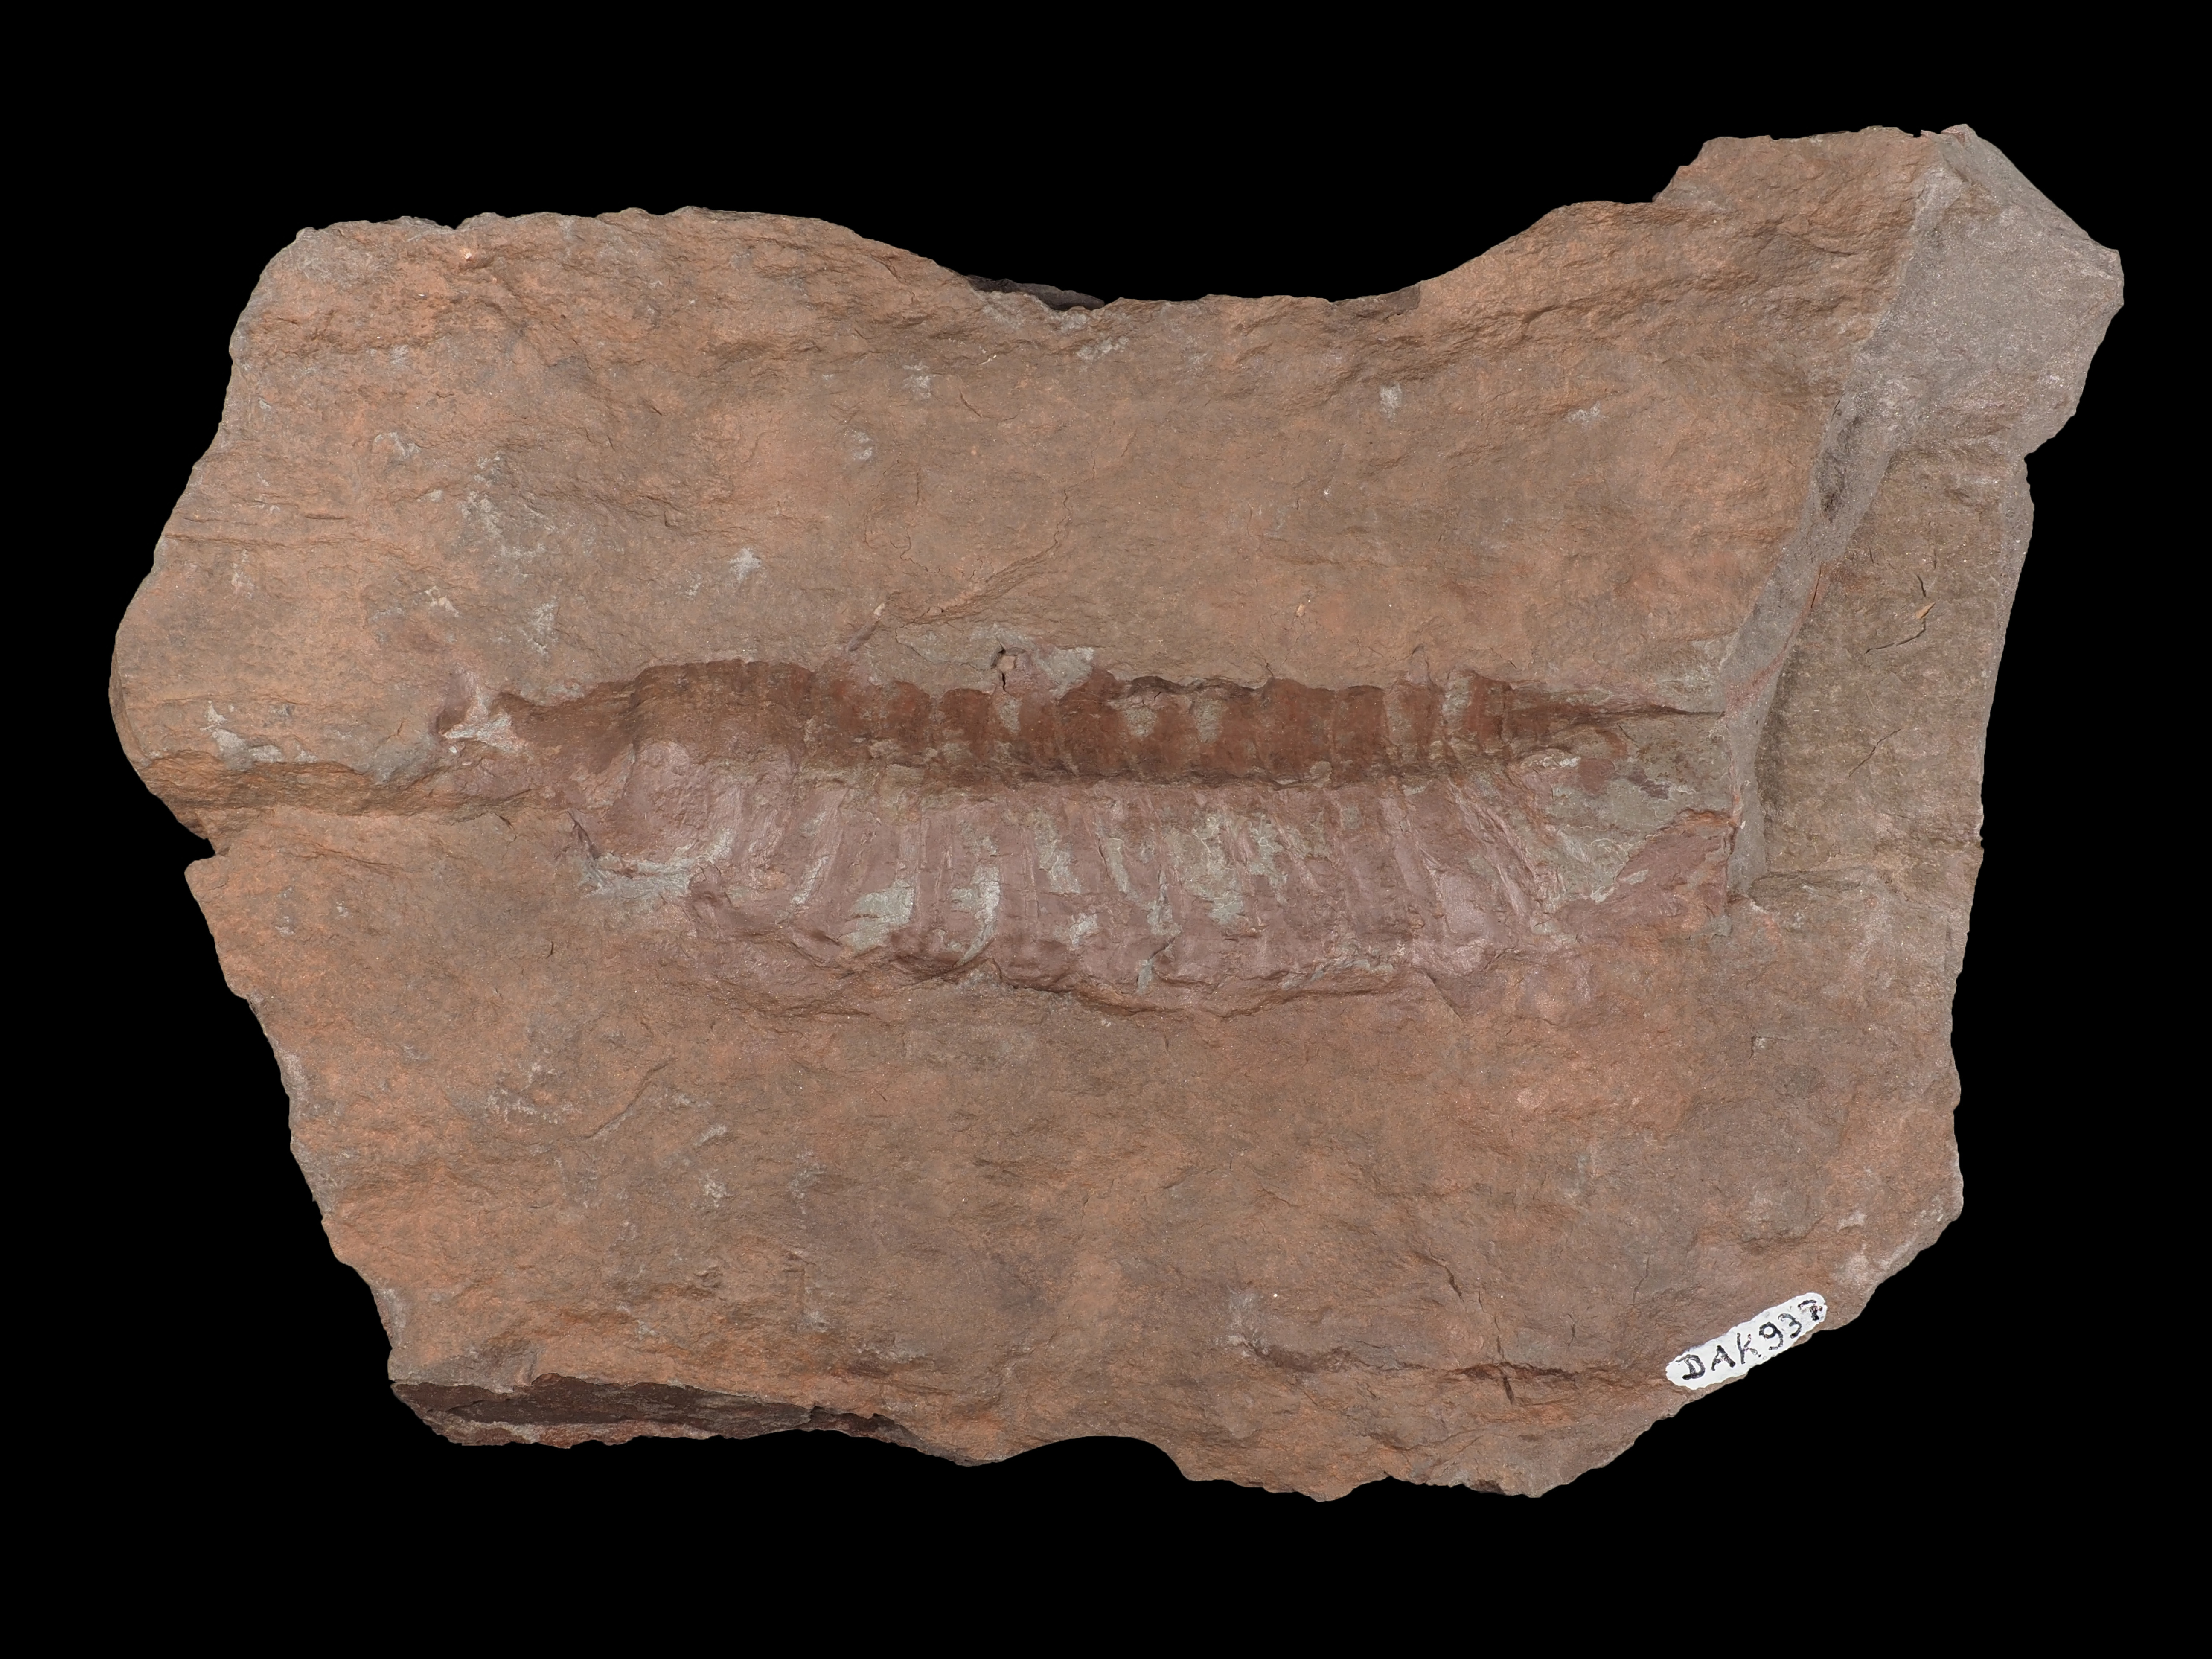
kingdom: Animalia
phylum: Arthropoda
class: Trilobita
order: Phacopida
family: Homalonotidae
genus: Wenndorfia
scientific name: Wenndorfia
